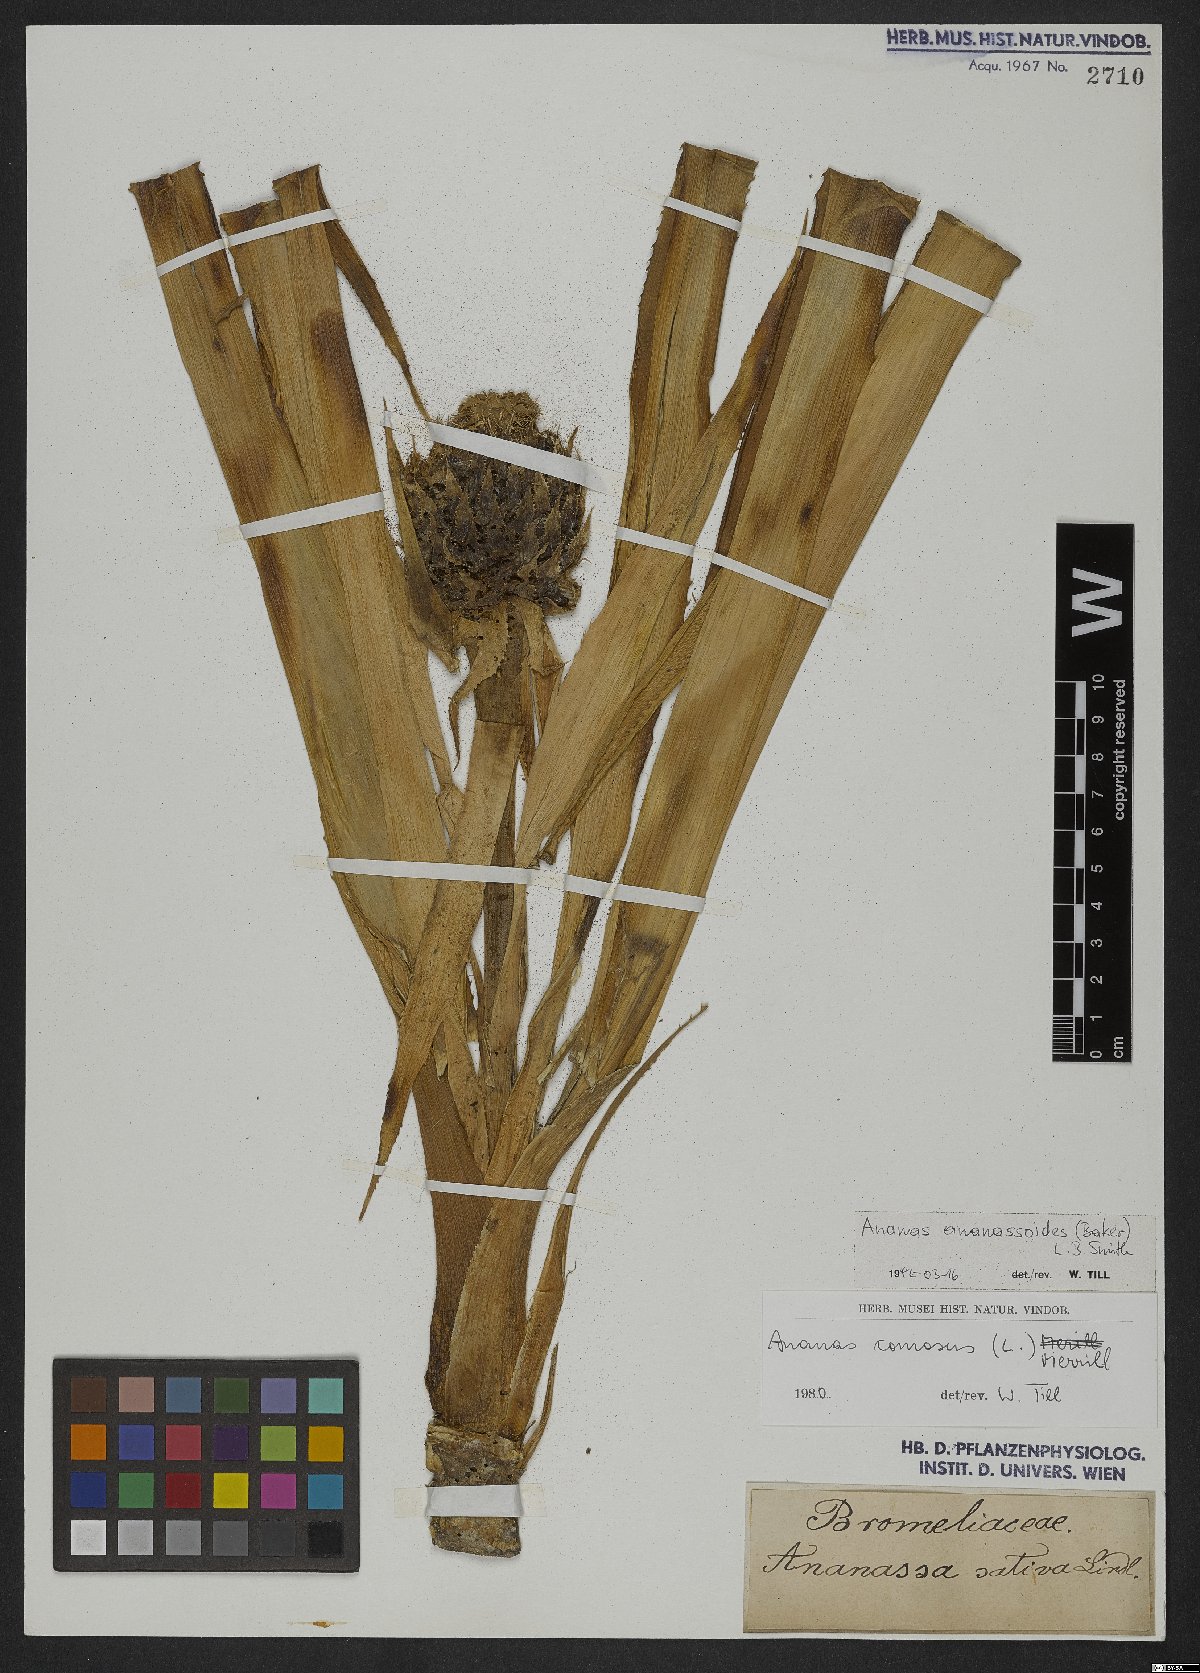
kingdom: Plantae
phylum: Tracheophyta
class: Liliopsida
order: Poales
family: Bromeliaceae
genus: Ananas
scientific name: Ananas comosus
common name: Pineapple
